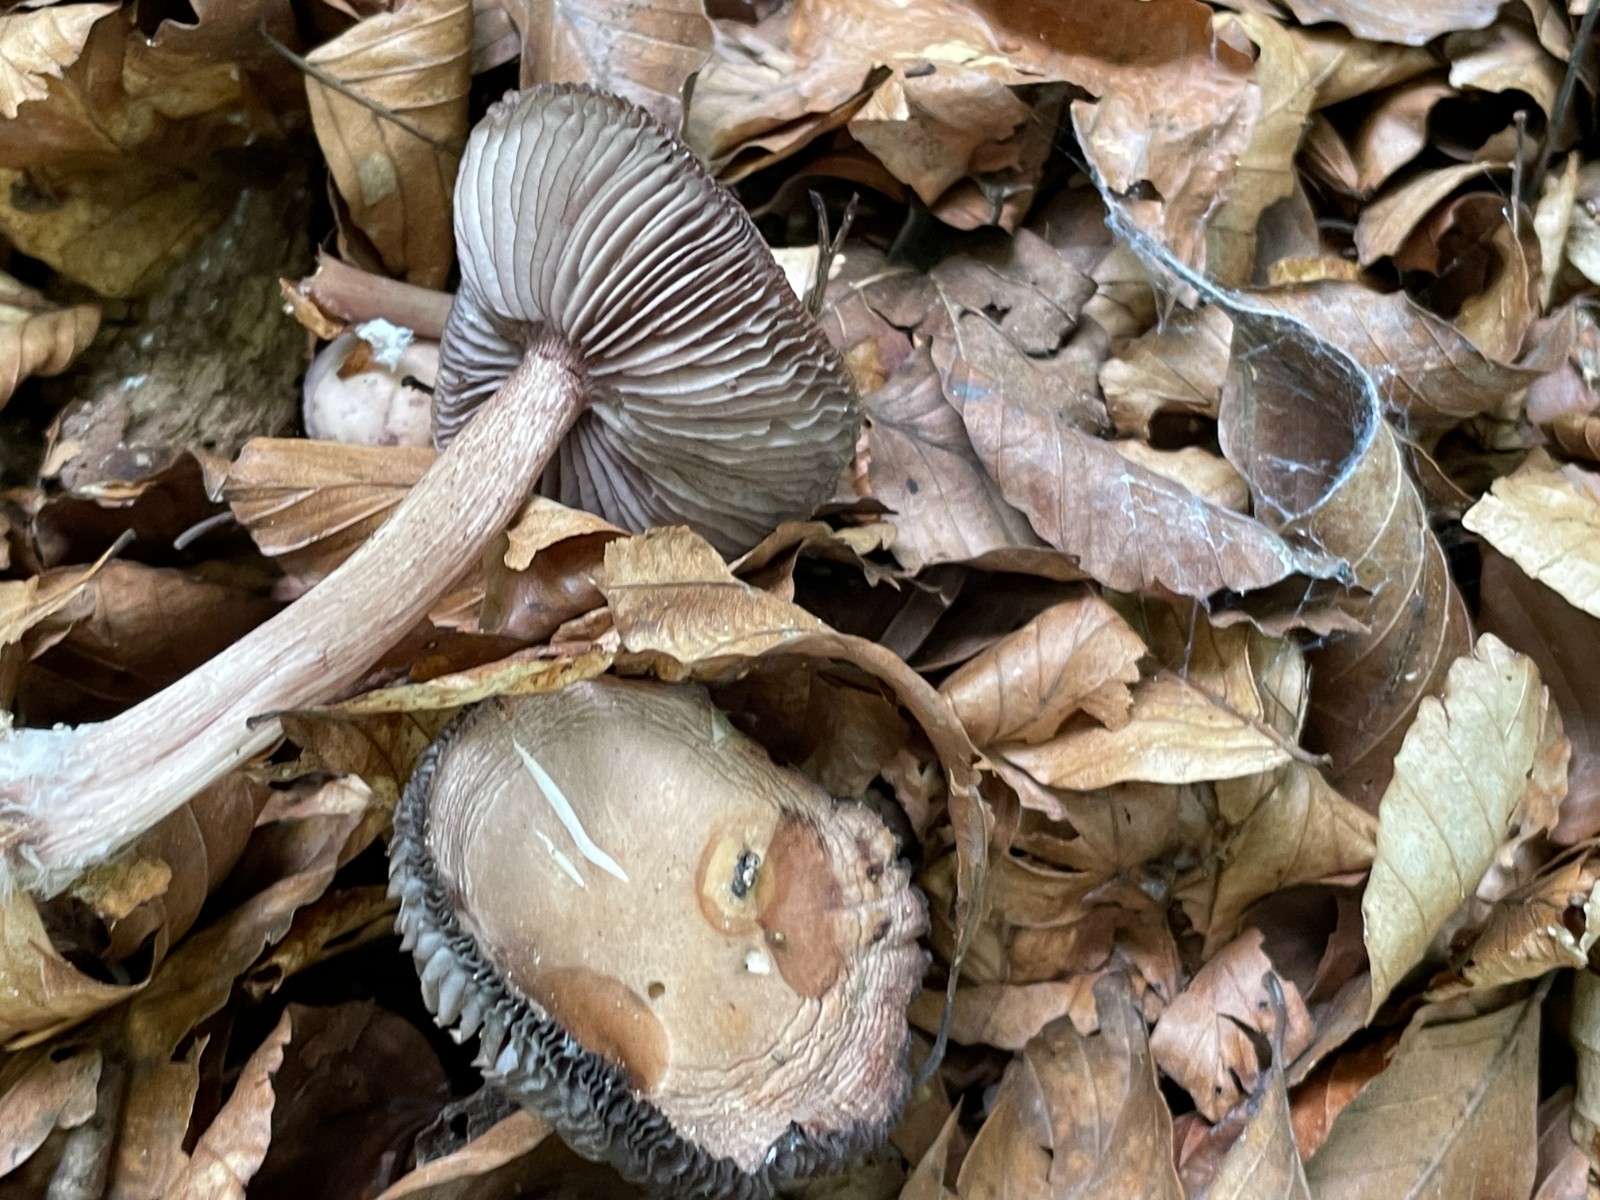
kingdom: Fungi
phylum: Basidiomycota
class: Agaricomycetes
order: Agaricales
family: Mycenaceae
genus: Mycena
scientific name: Mycena pelianthina
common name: mørkbladet huesvamp
